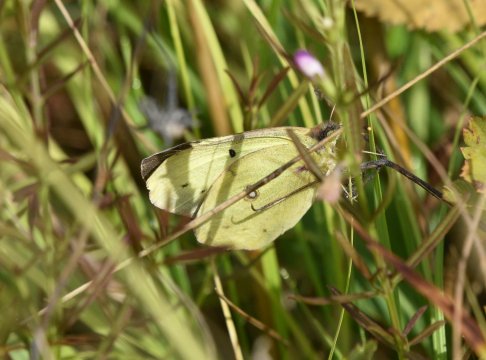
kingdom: Animalia
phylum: Arthropoda
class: Insecta
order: Lepidoptera
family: Pieridae
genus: Colias
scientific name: Colias philodice
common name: Clouded Sulphur
